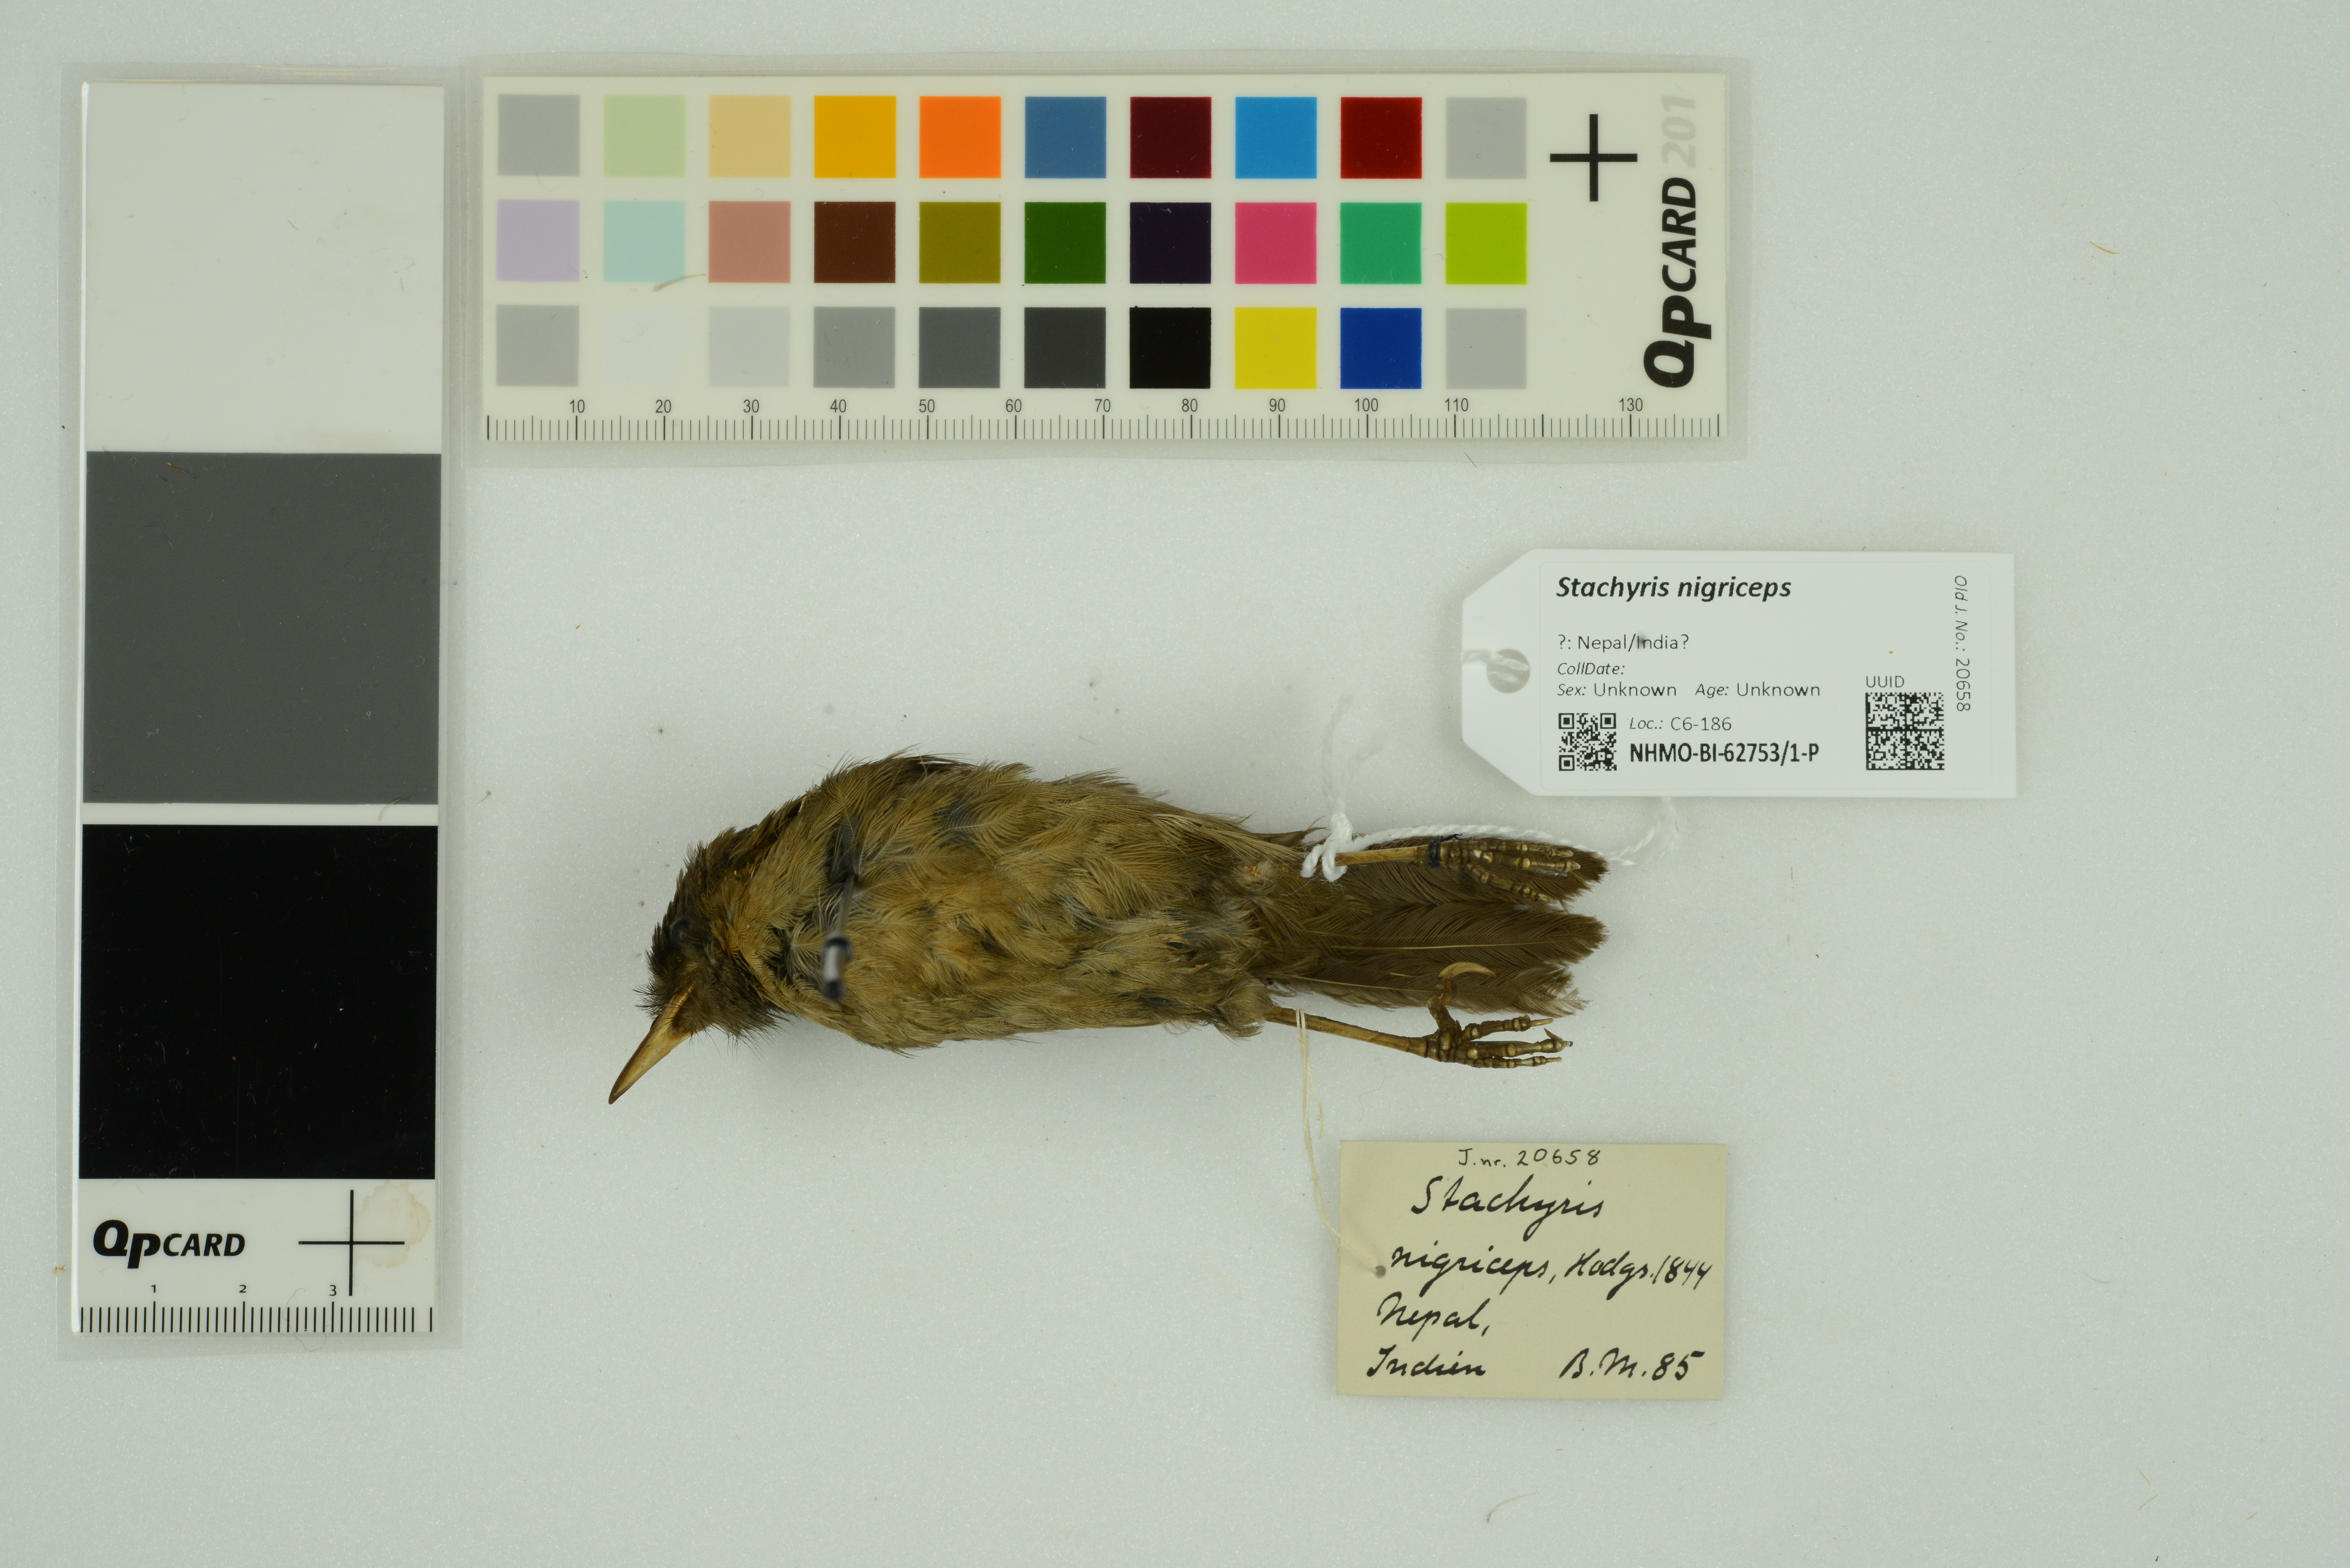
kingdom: Animalia
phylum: Chordata
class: Aves
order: Passeriformes
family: Timaliidae
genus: Stachyris
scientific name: Stachyris nigriceps
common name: Grey-throated babbler
